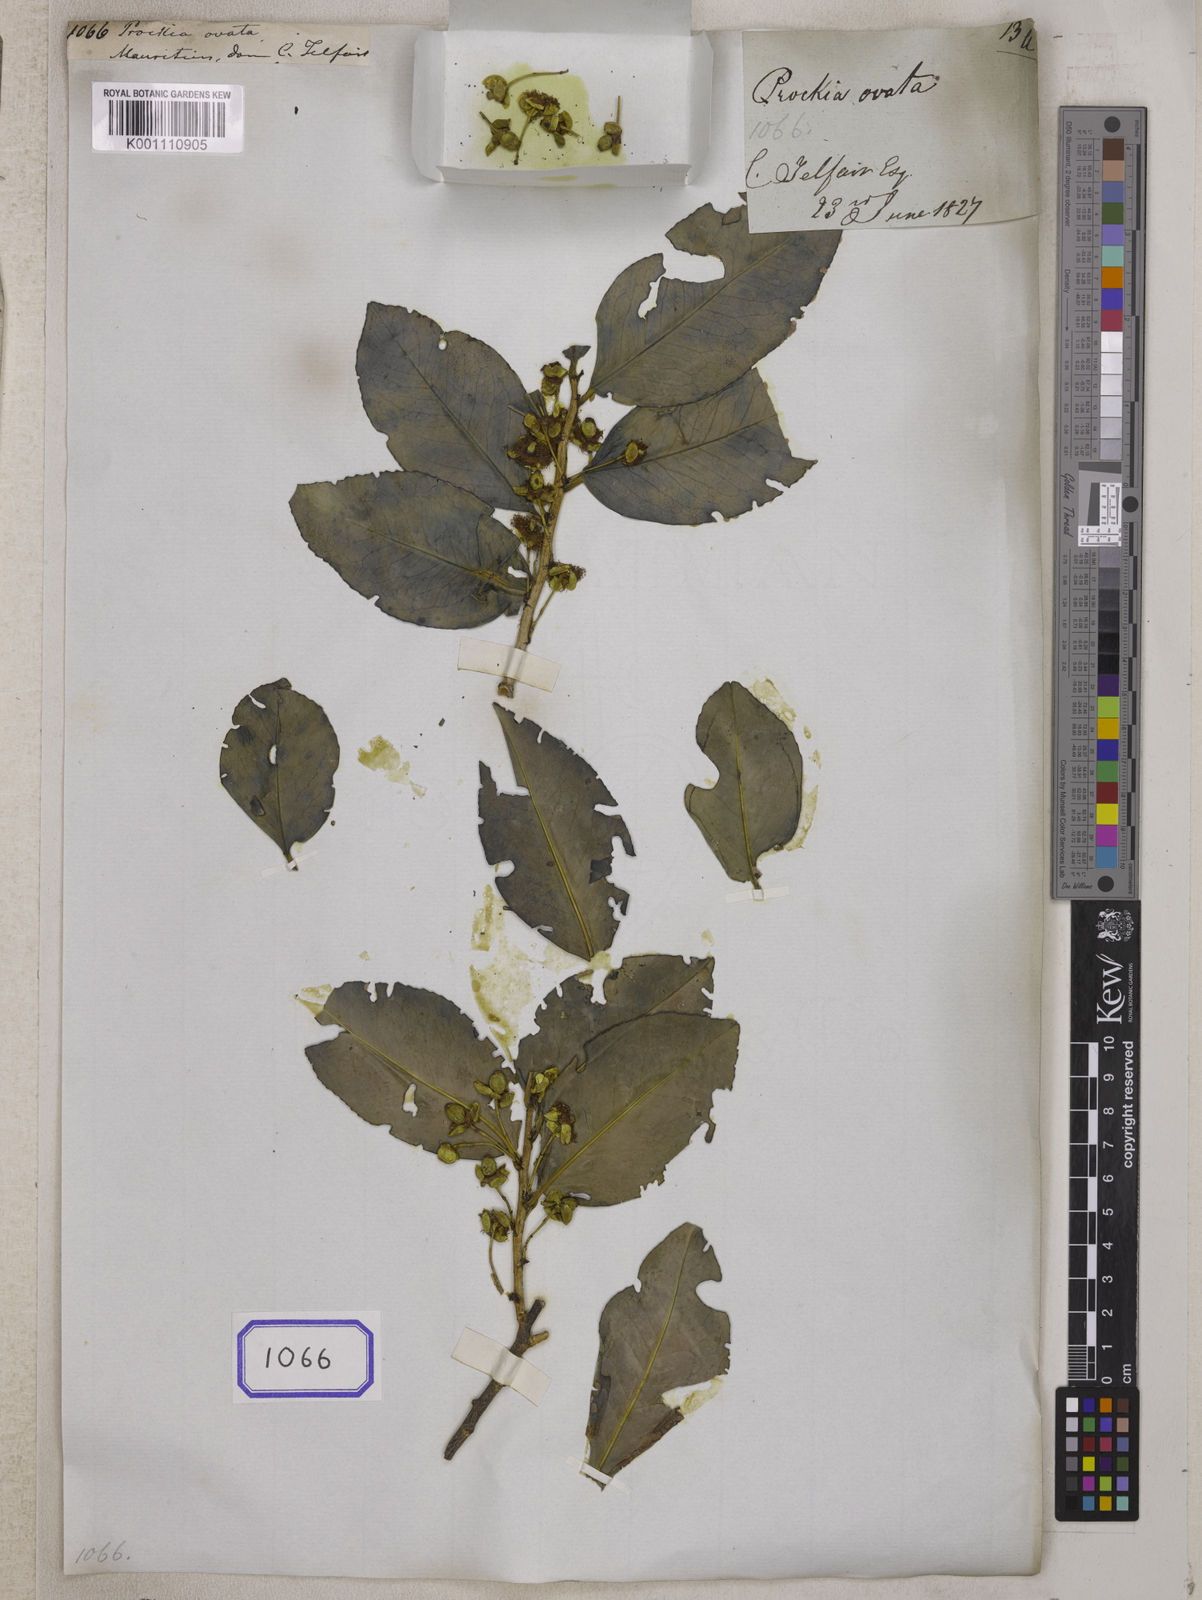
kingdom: Plantae
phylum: Tracheophyta
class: Magnoliopsida
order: Malpighiales
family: Salicaceae
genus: Prockia
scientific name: Prockia
